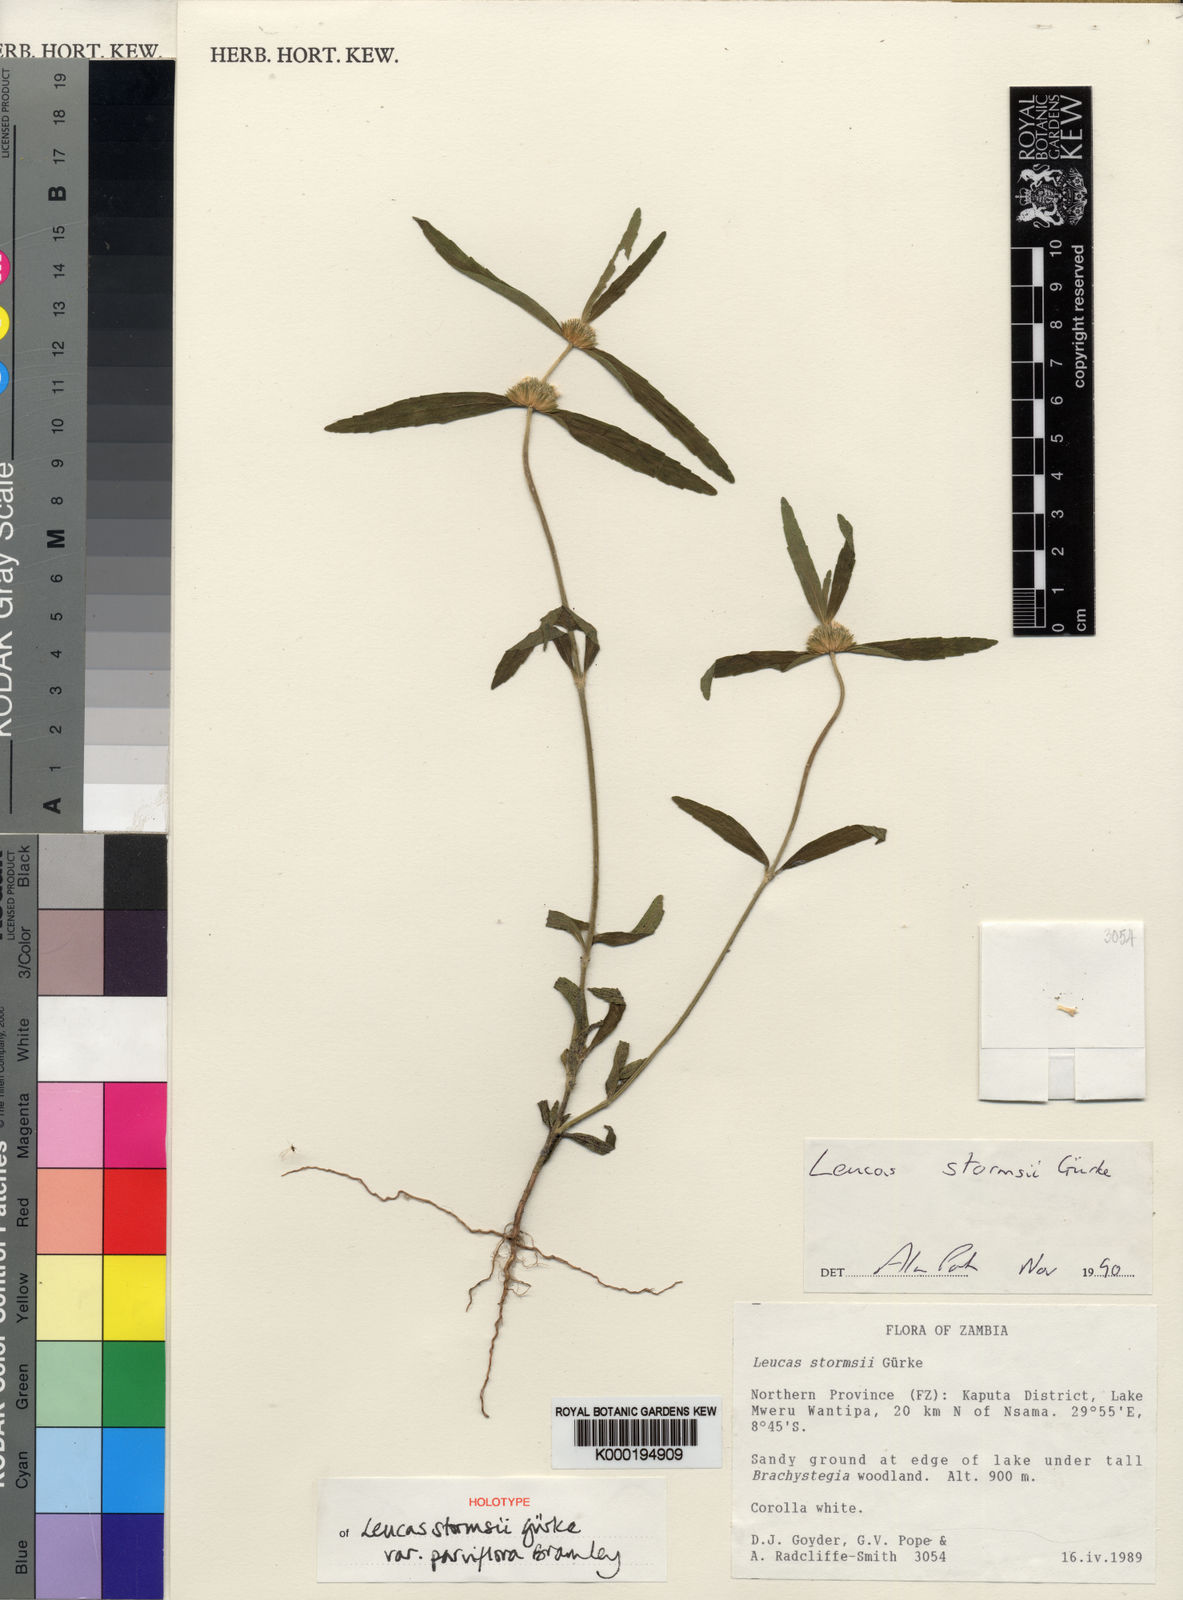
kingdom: Plantae
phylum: Tracheophyta
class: Magnoliopsida
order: Lamiales
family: Lamiaceae
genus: Leucas
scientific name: Leucas stormsii
